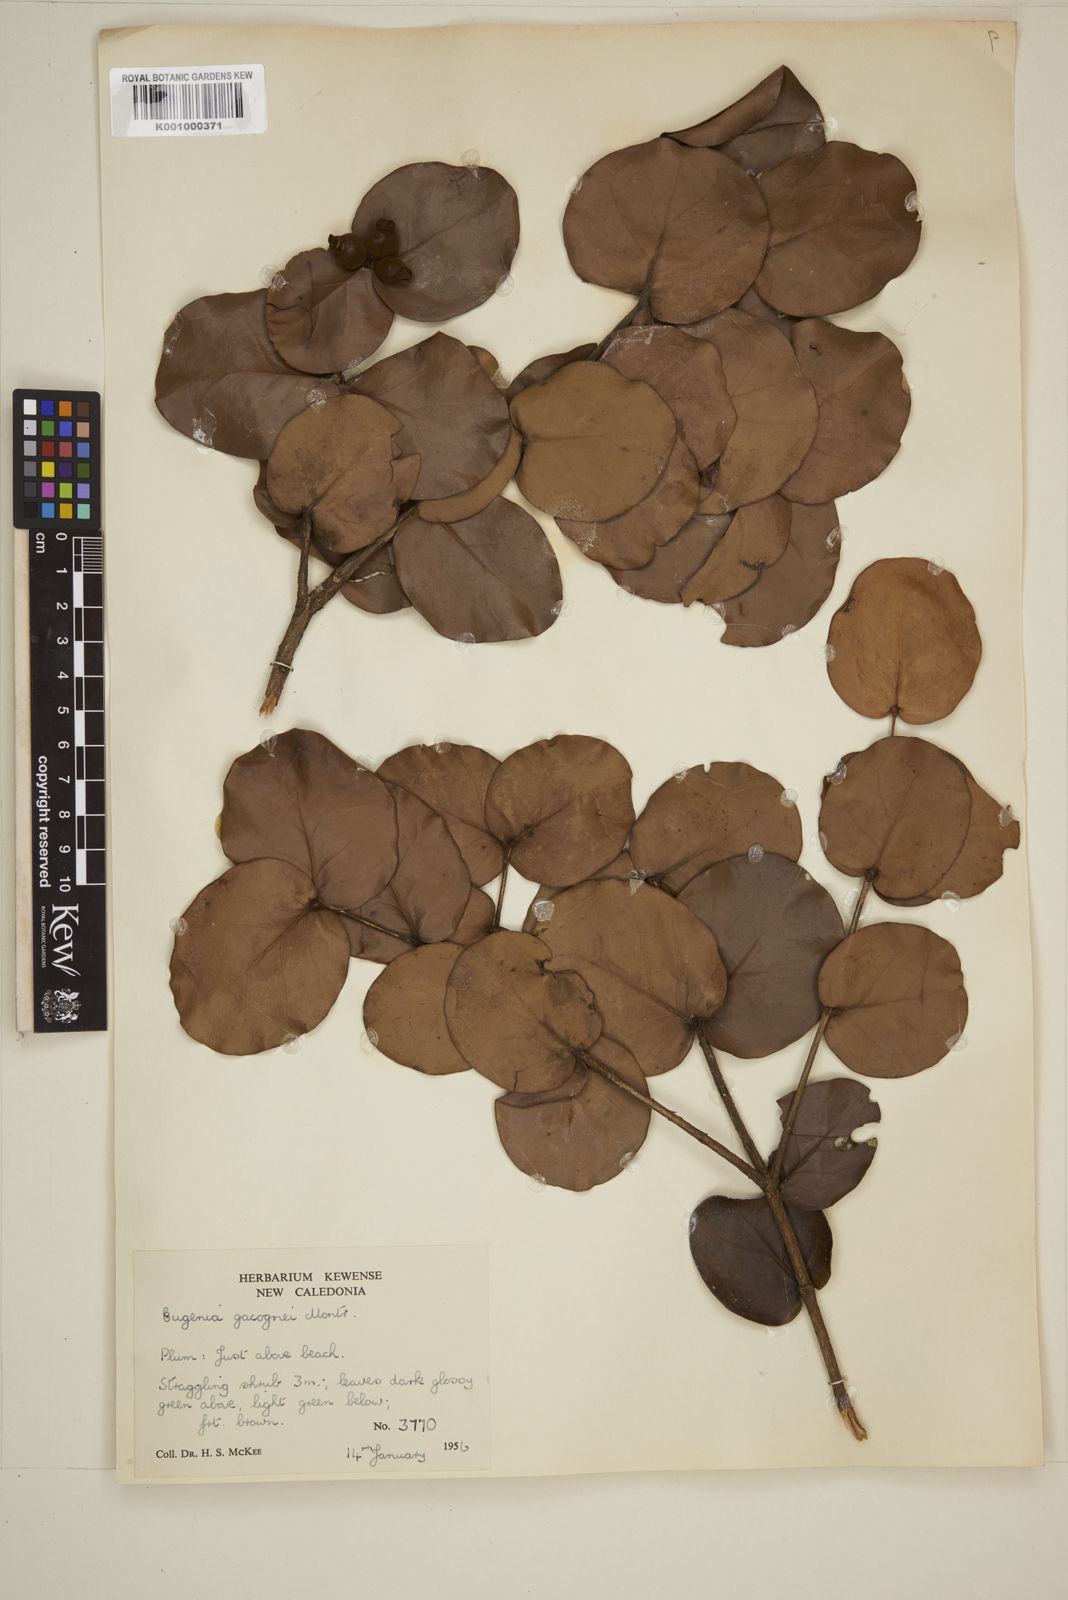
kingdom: Plantae
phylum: Tracheophyta
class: Magnoliopsida
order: Myrtales
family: Myrtaceae
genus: Eugenia
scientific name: Eugenia gacognei
